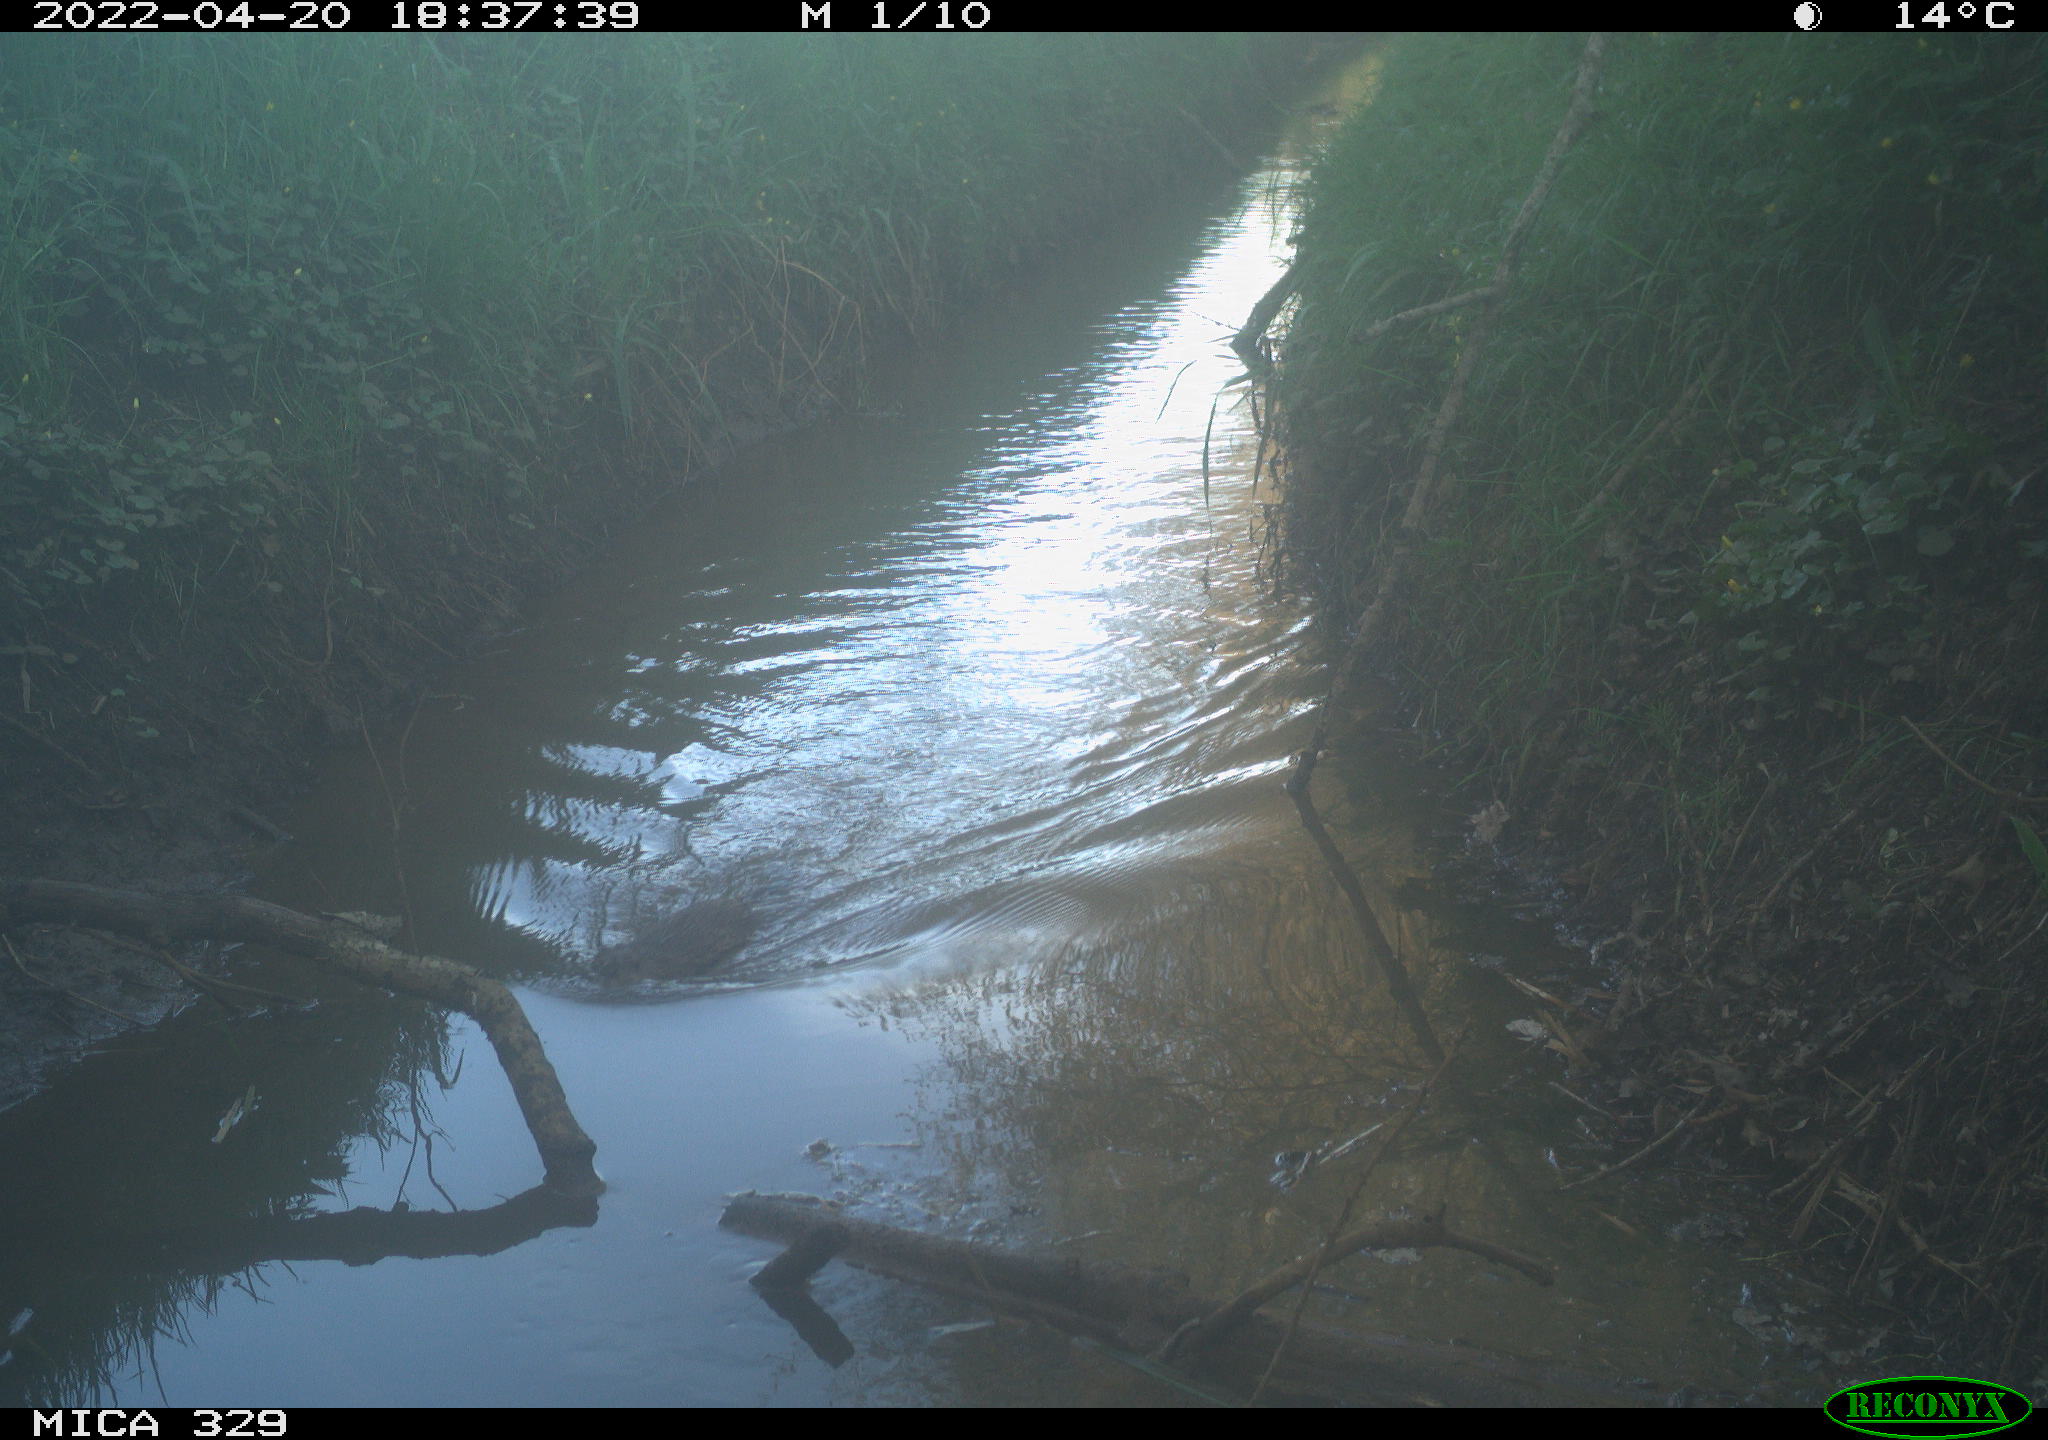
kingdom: Animalia
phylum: Chordata
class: Mammalia
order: Rodentia
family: Cricetidae
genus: Ondatra
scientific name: Ondatra zibethicus
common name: Muskrat
